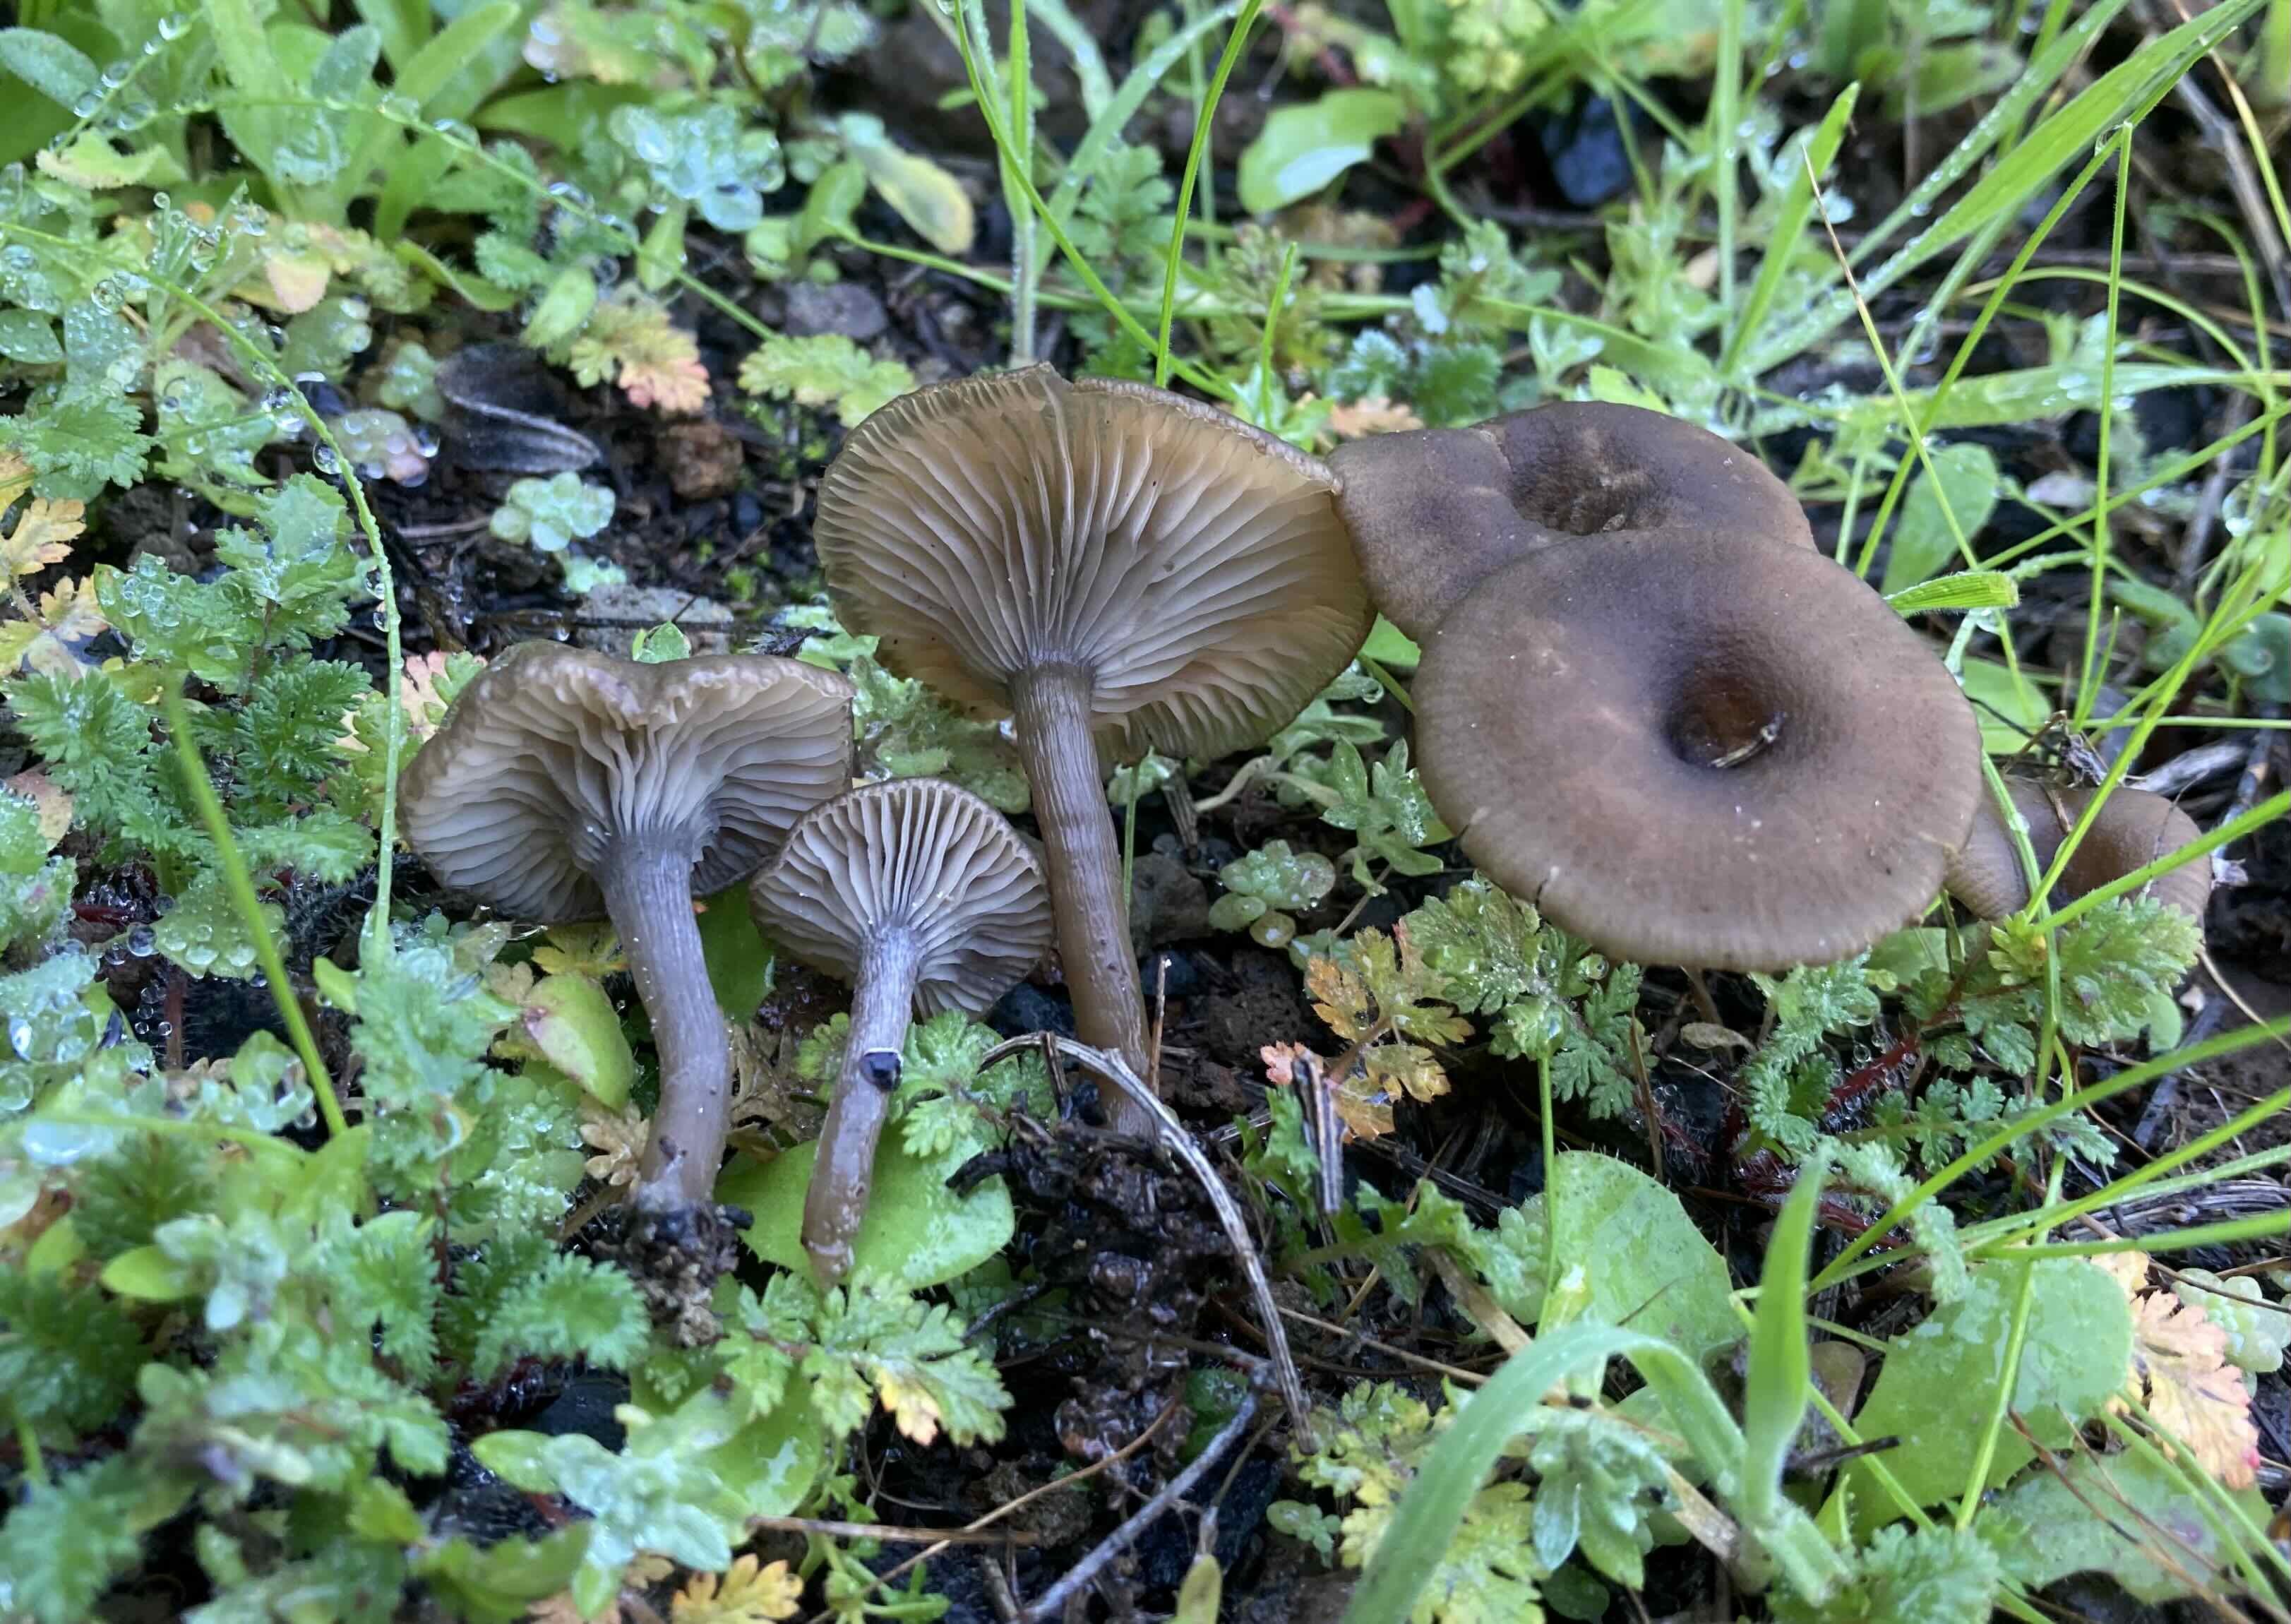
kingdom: Fungi
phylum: Basidiomycota
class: Agaricomycetes
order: Agaricales
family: Pseudoclitocybaceae
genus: Pseudoclitocybe
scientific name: Pseudoclitocybe expallens
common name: lille bægertragthat
